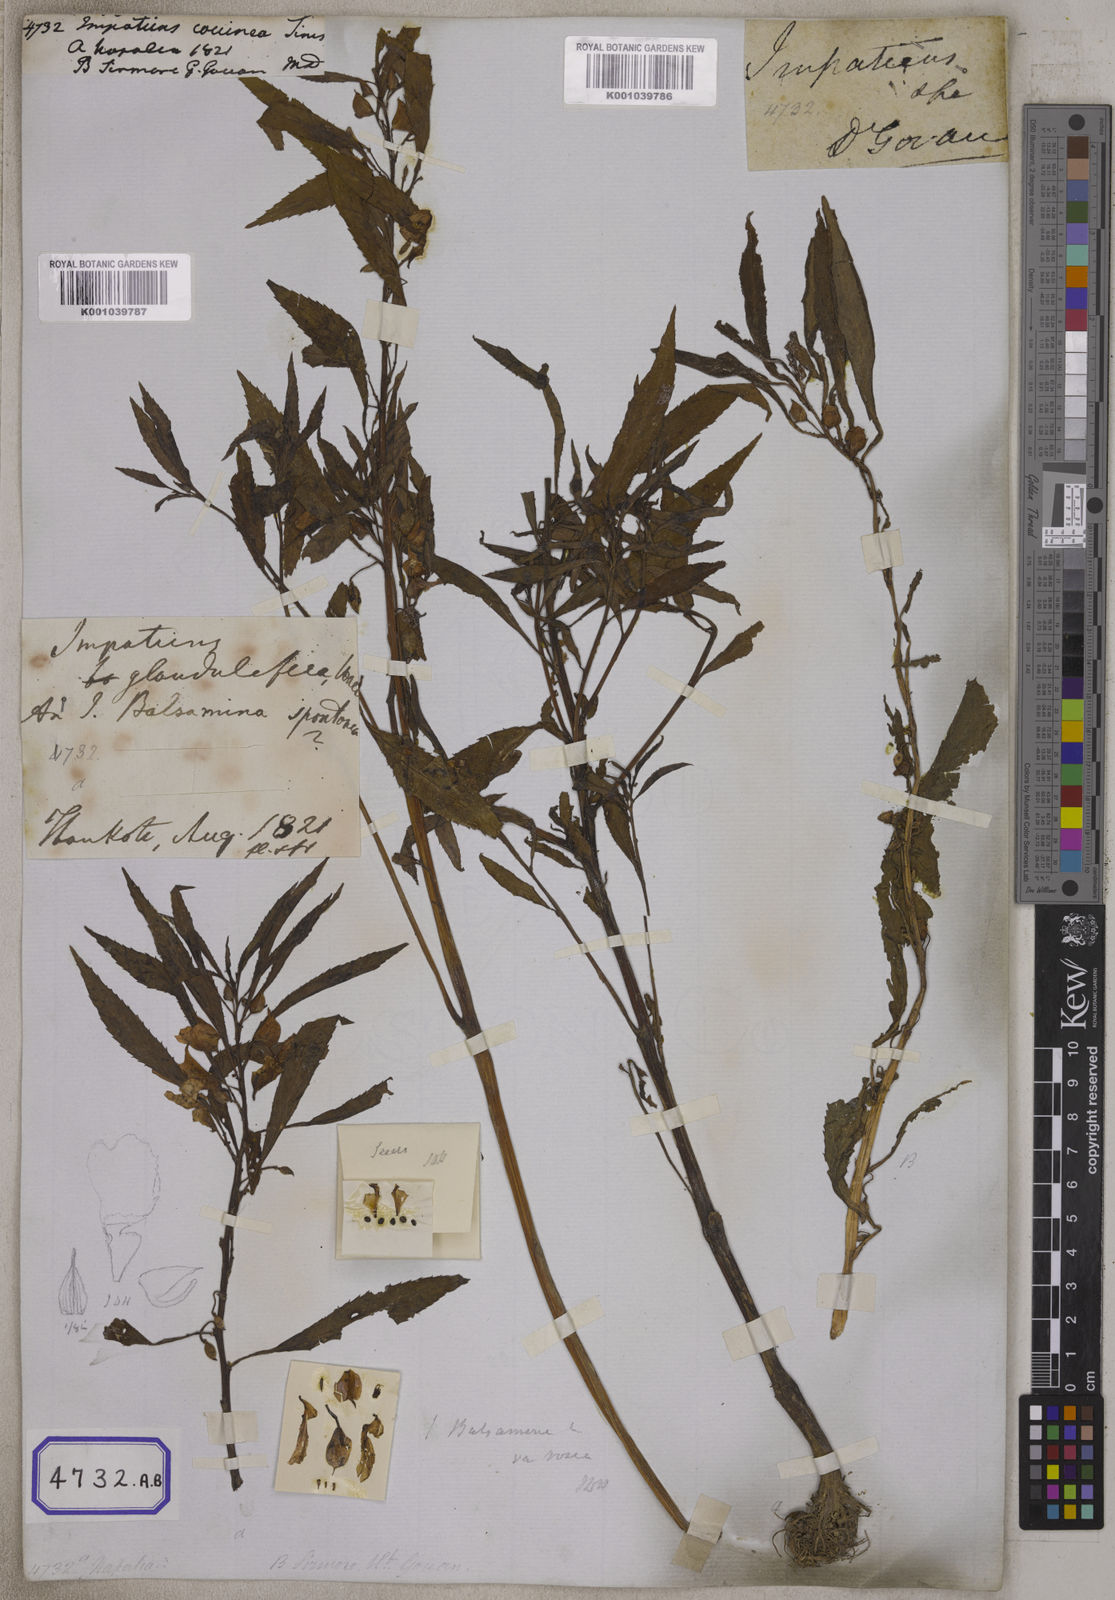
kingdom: Plantae
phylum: Tracheophyta
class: Magnoliopsida
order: Ericales
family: Balsaminaceae
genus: Impatiens
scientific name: Impatiens
